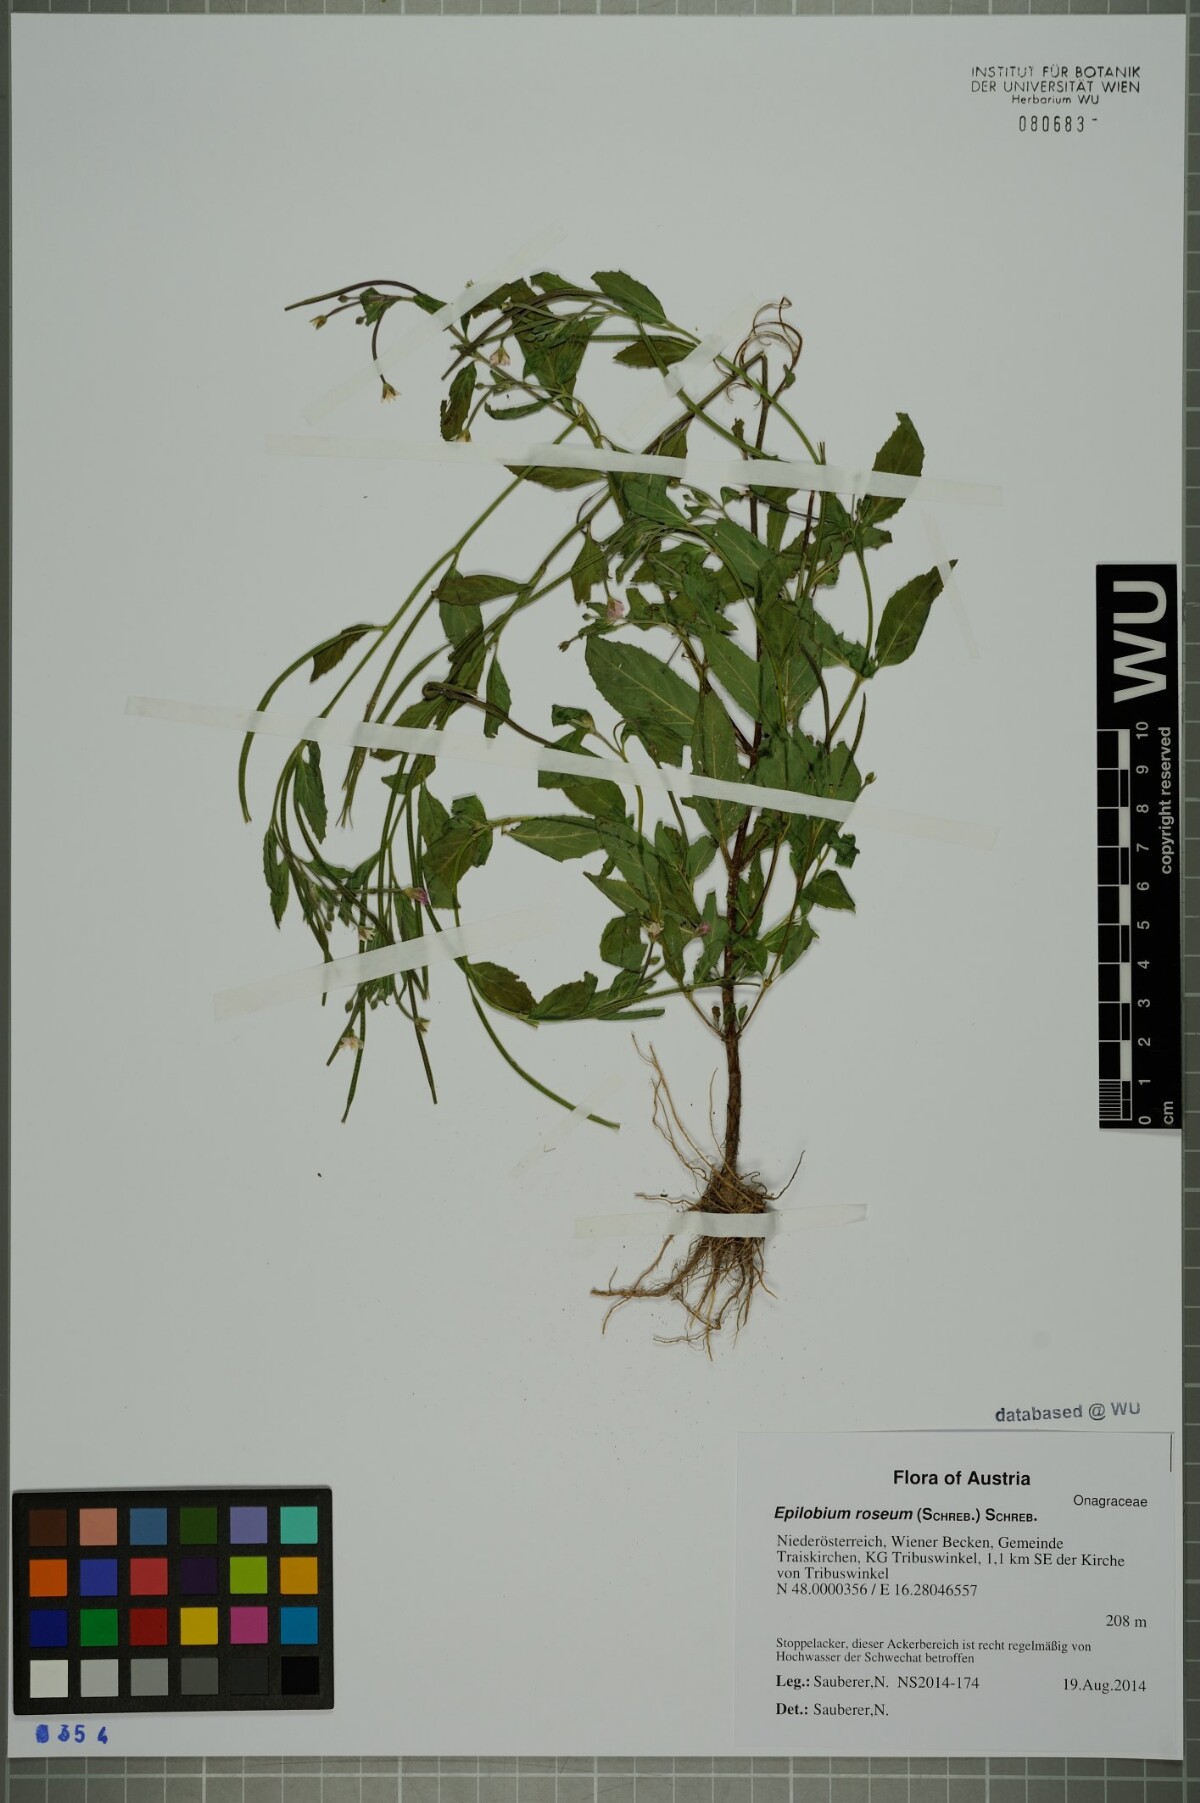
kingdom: Plantae
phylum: Tracheophyta
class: Magnoliopsida
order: Myrtales
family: Onagraceae
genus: Epilobium
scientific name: Epilobium roseum
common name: Pale willowherb
